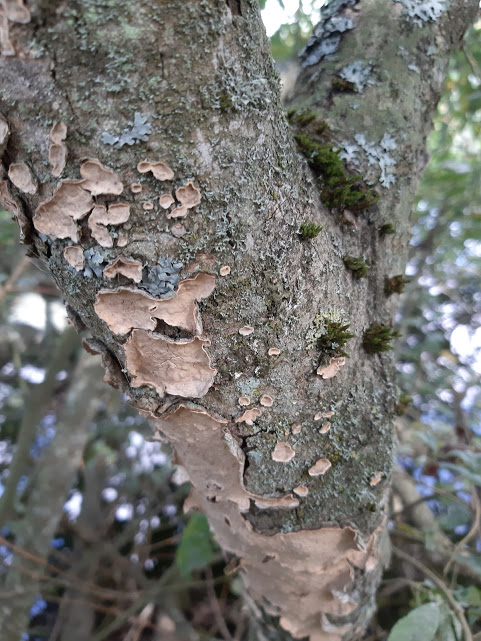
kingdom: Fungi
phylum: Basidiomycota
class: Agaricomycetes
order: Russulales
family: Stereaceae
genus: Stereum
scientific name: Stereum rugosum
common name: rynket lædersvamp
